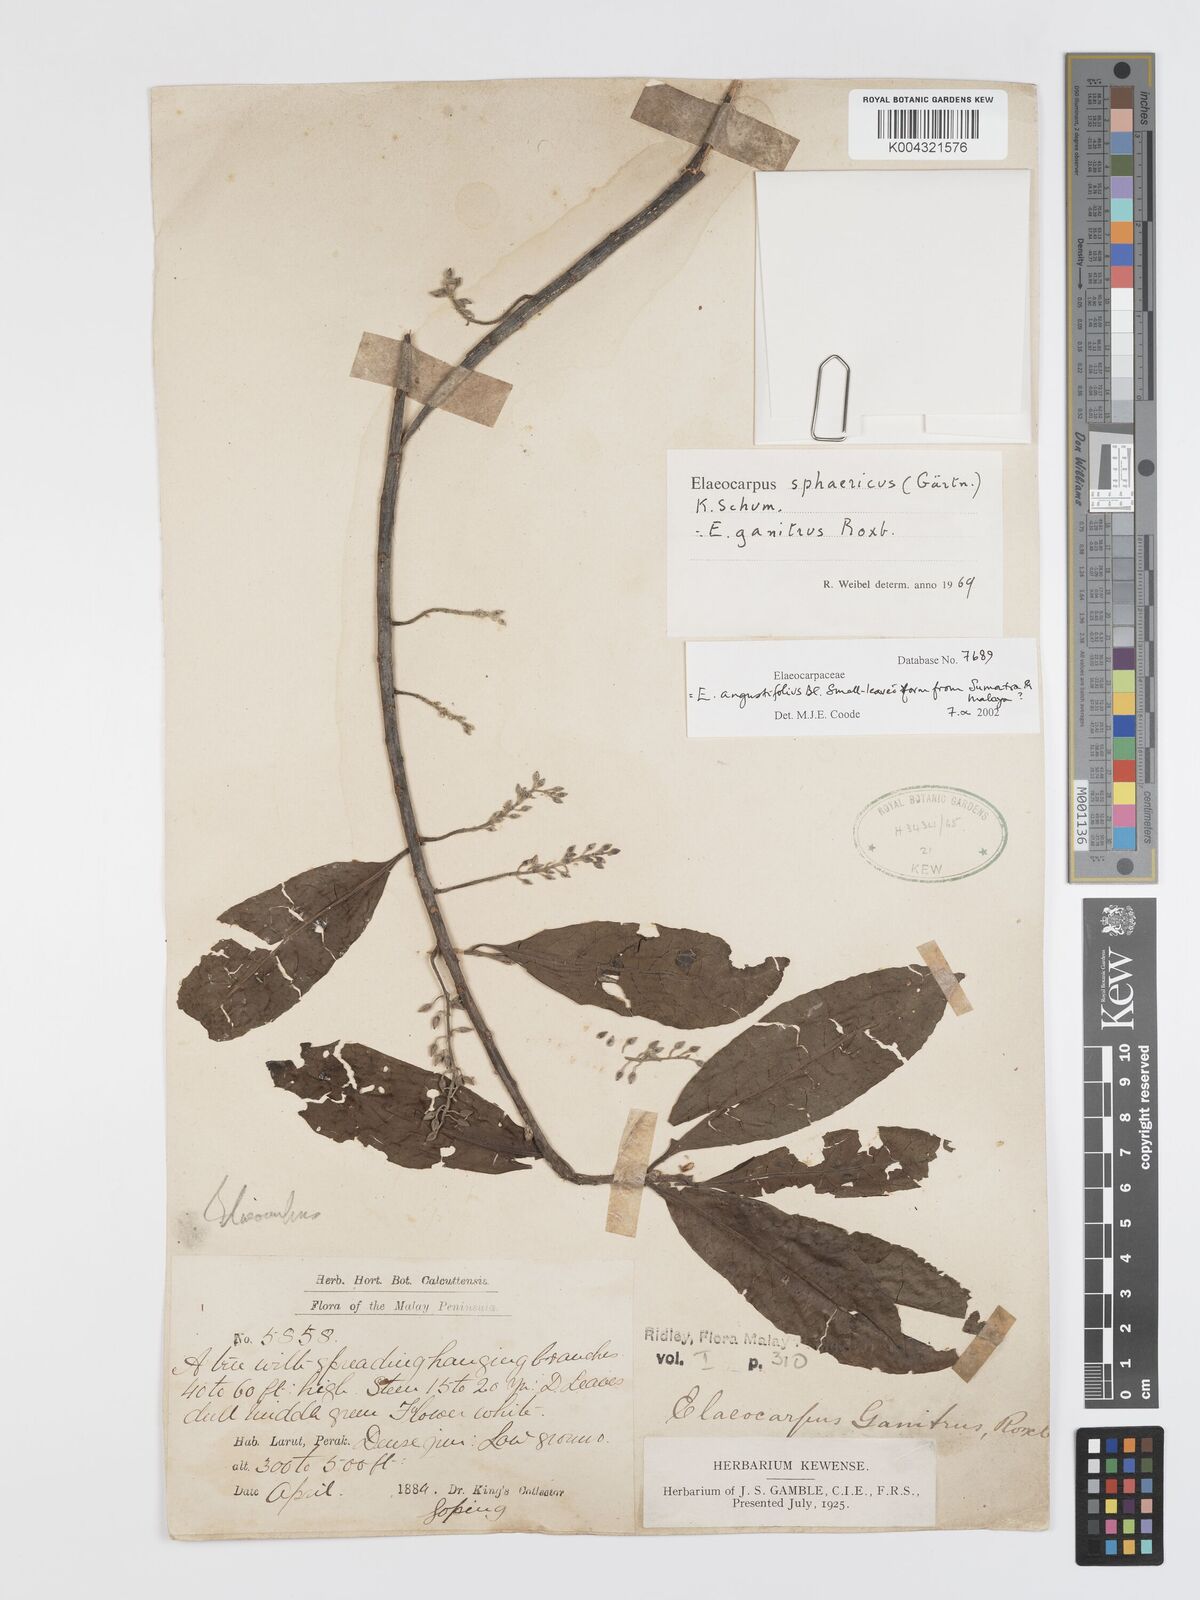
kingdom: Plantae
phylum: Tracheophyta
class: Magnoliopsida
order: Oxalidales
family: Elaeocarpaceae
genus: Elaeocarpus
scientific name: Elaeocarpus sphaericus
